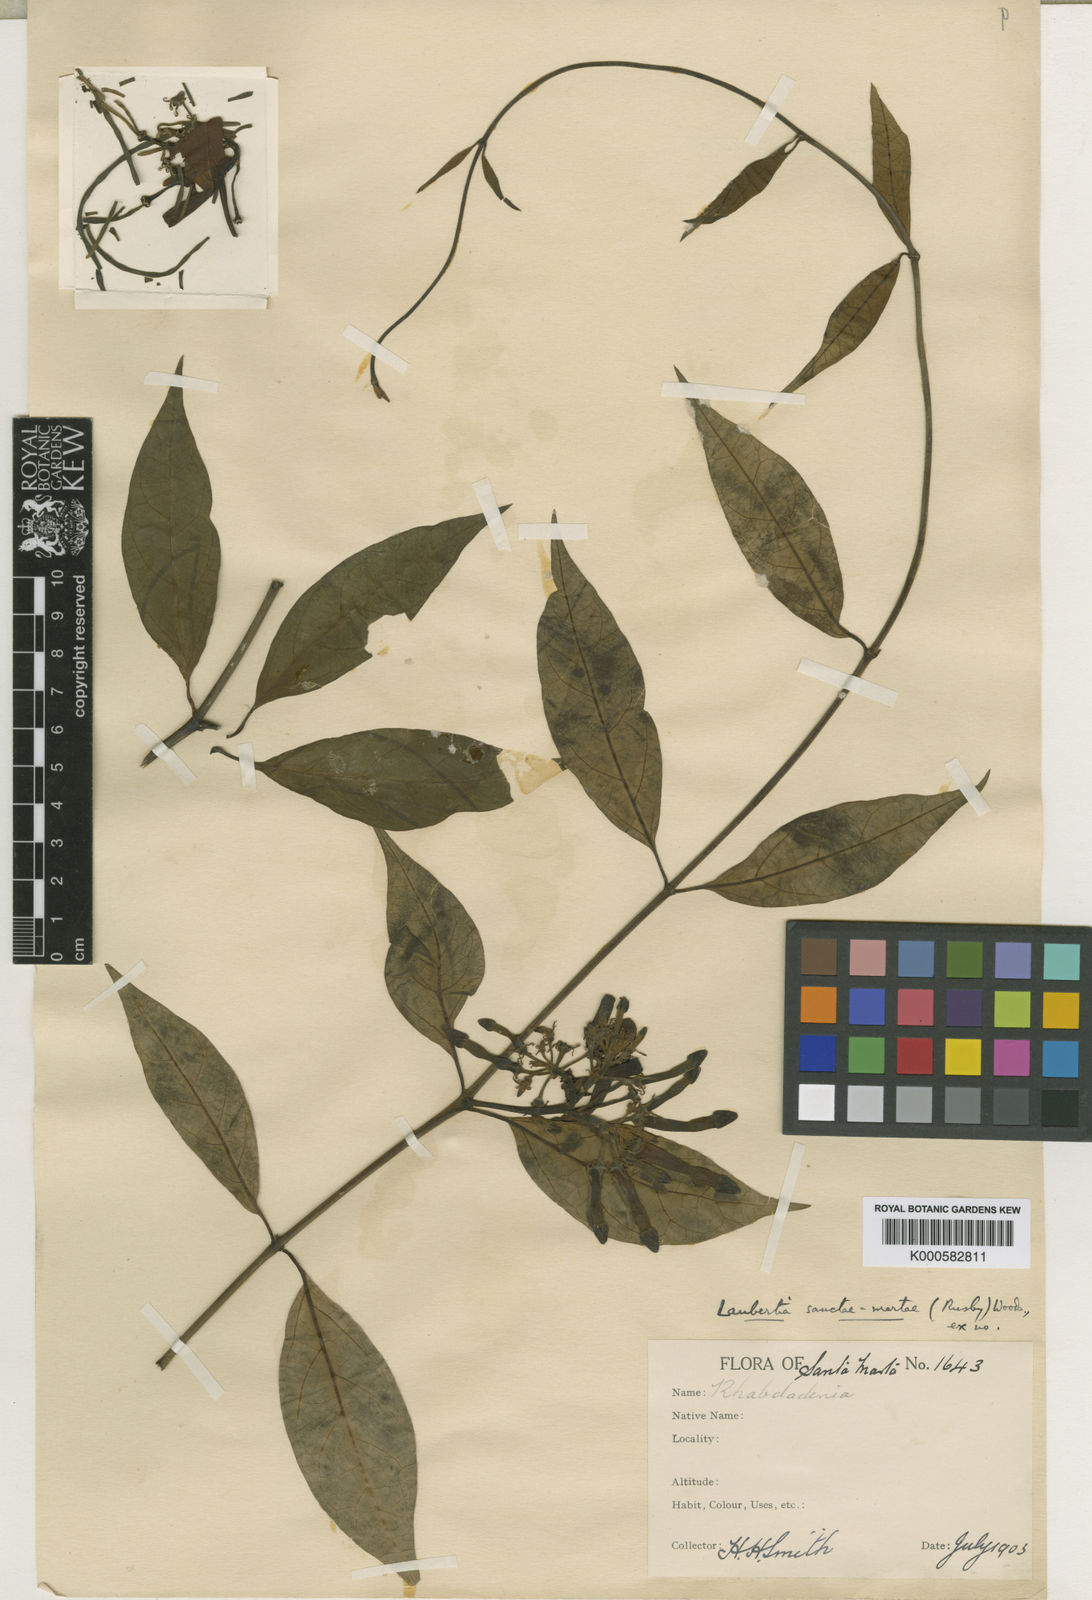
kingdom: Plantae
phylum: Tracheophyta
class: Magnoliopsida
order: Gentianales
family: Apocynaceae
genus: Laubertia
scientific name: Laubertia boissieri
